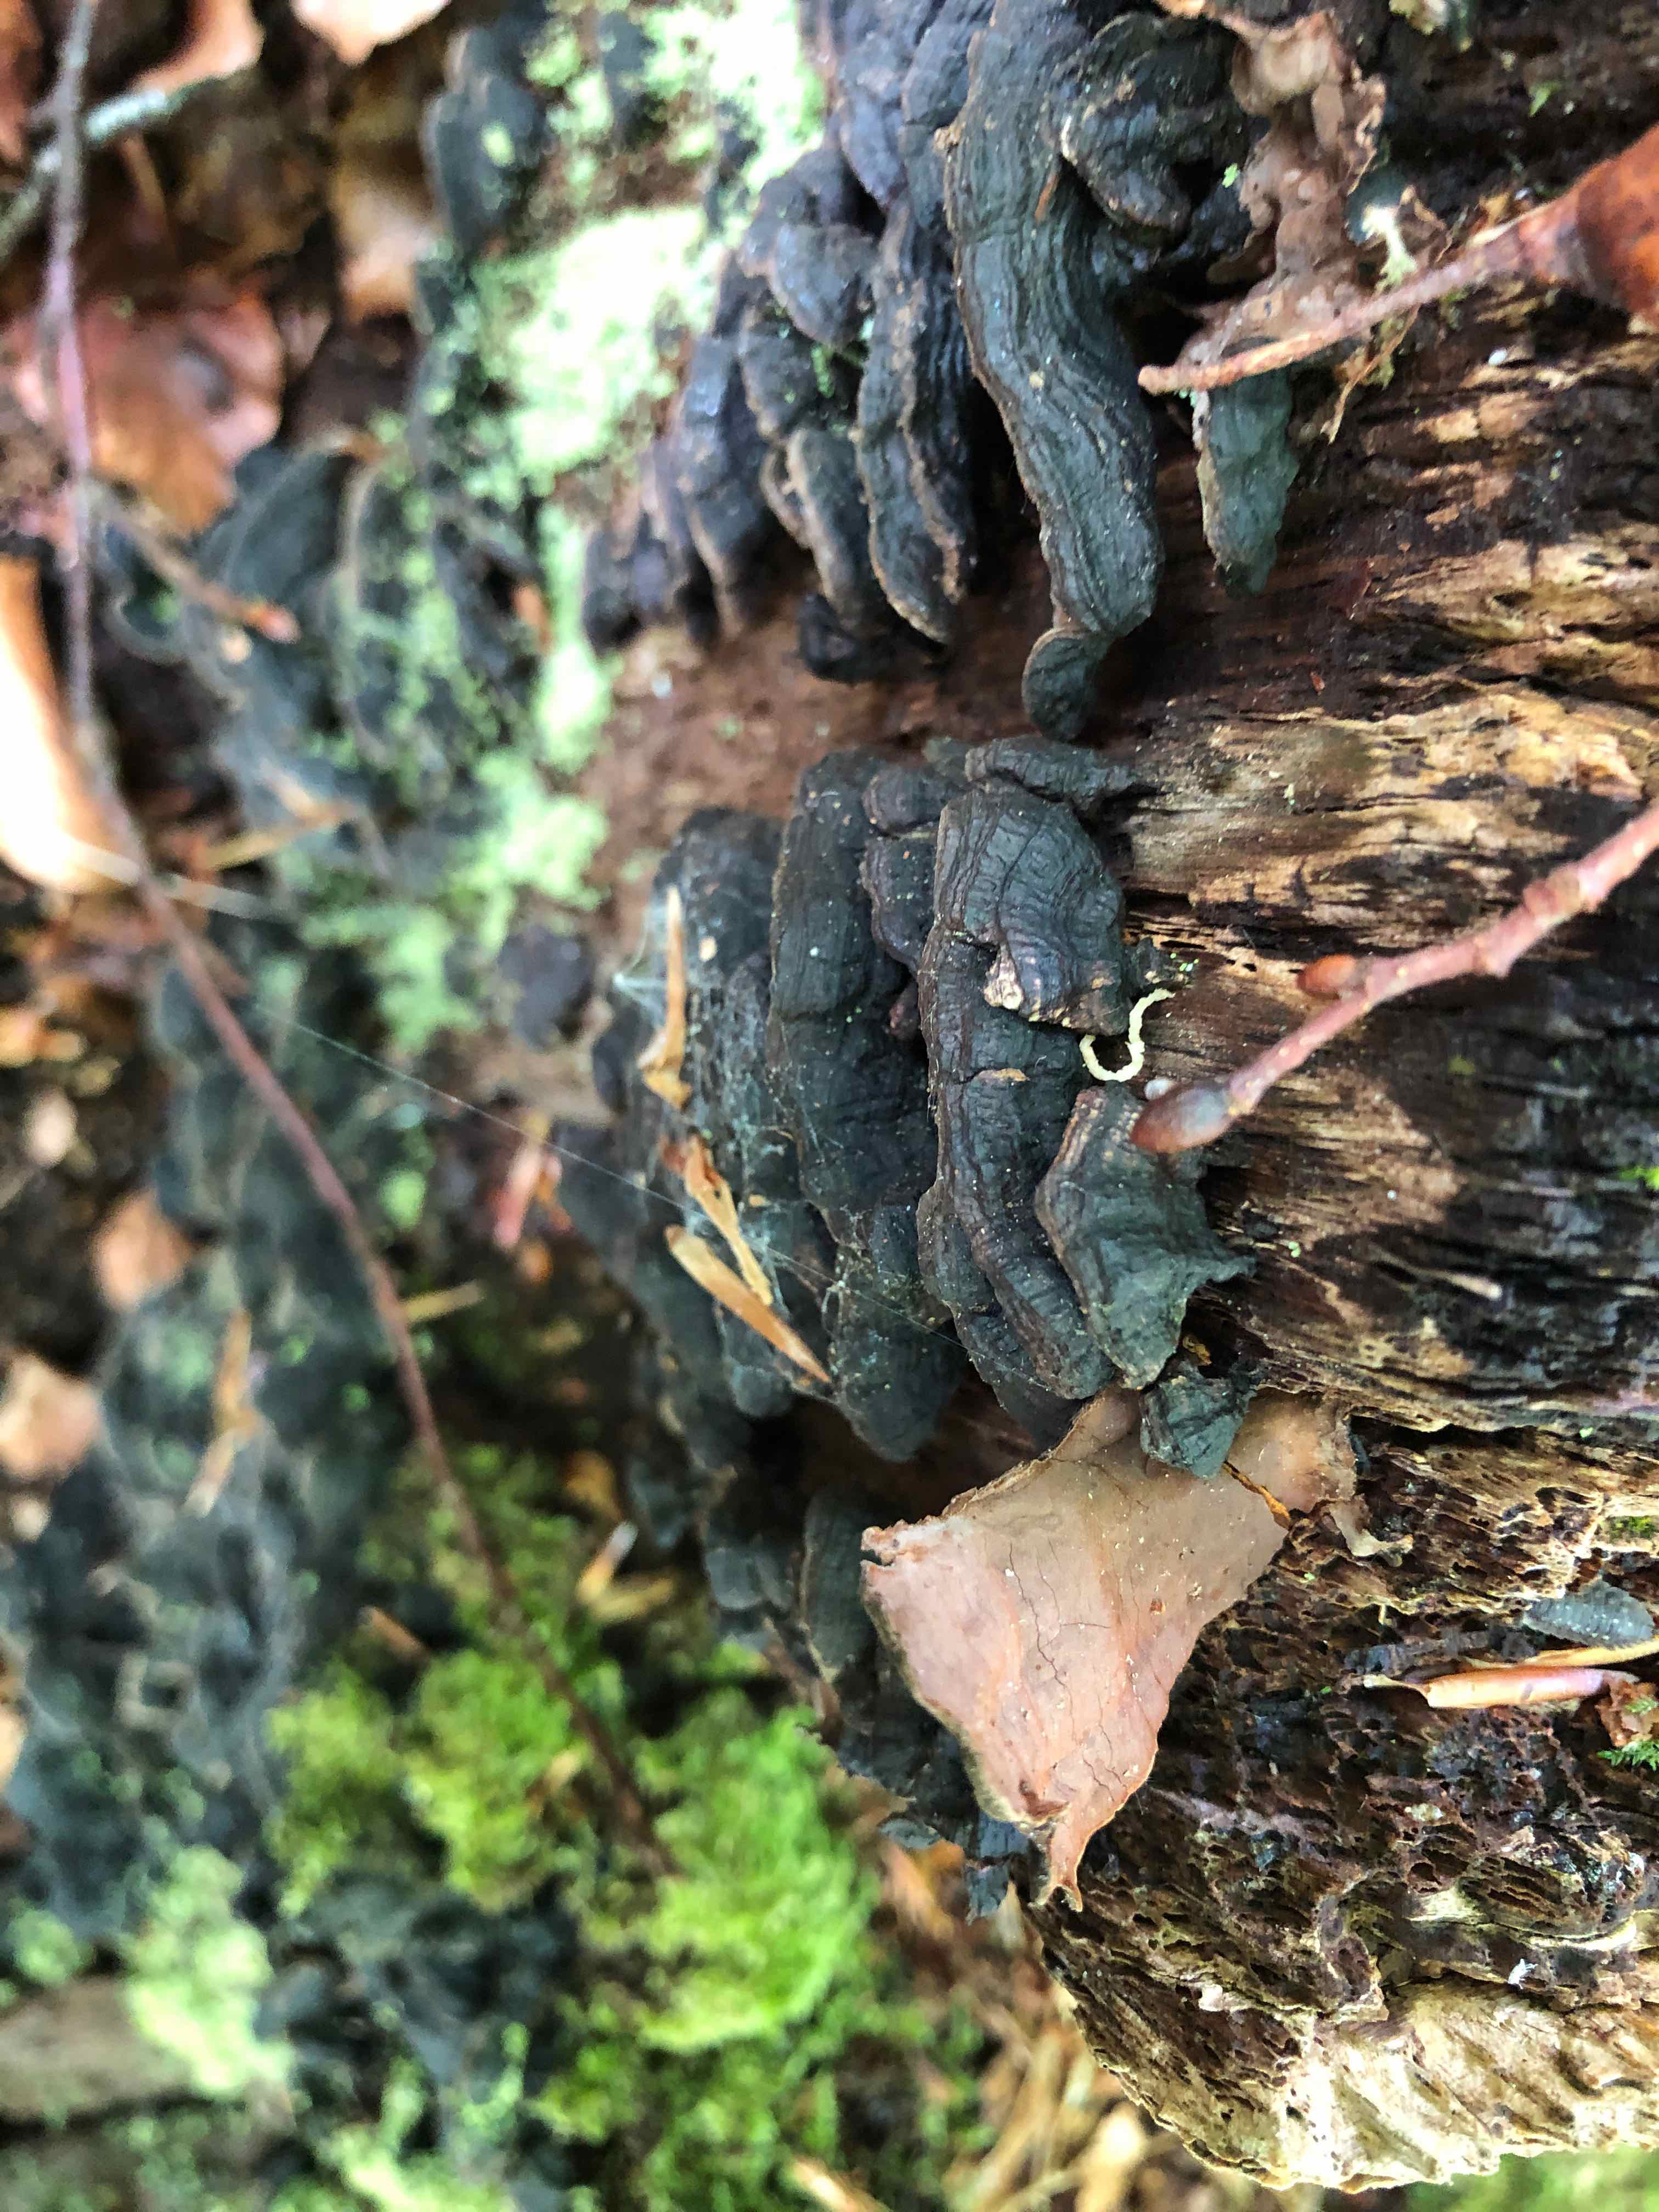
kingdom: Fungi
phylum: Basidiomycota
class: Agaricomycetes
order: Hymenochaetales
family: Hymenochaetaceae
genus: Hymenochaete
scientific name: Hymenochaete rubiginosa
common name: stiv ruslædersvamp
